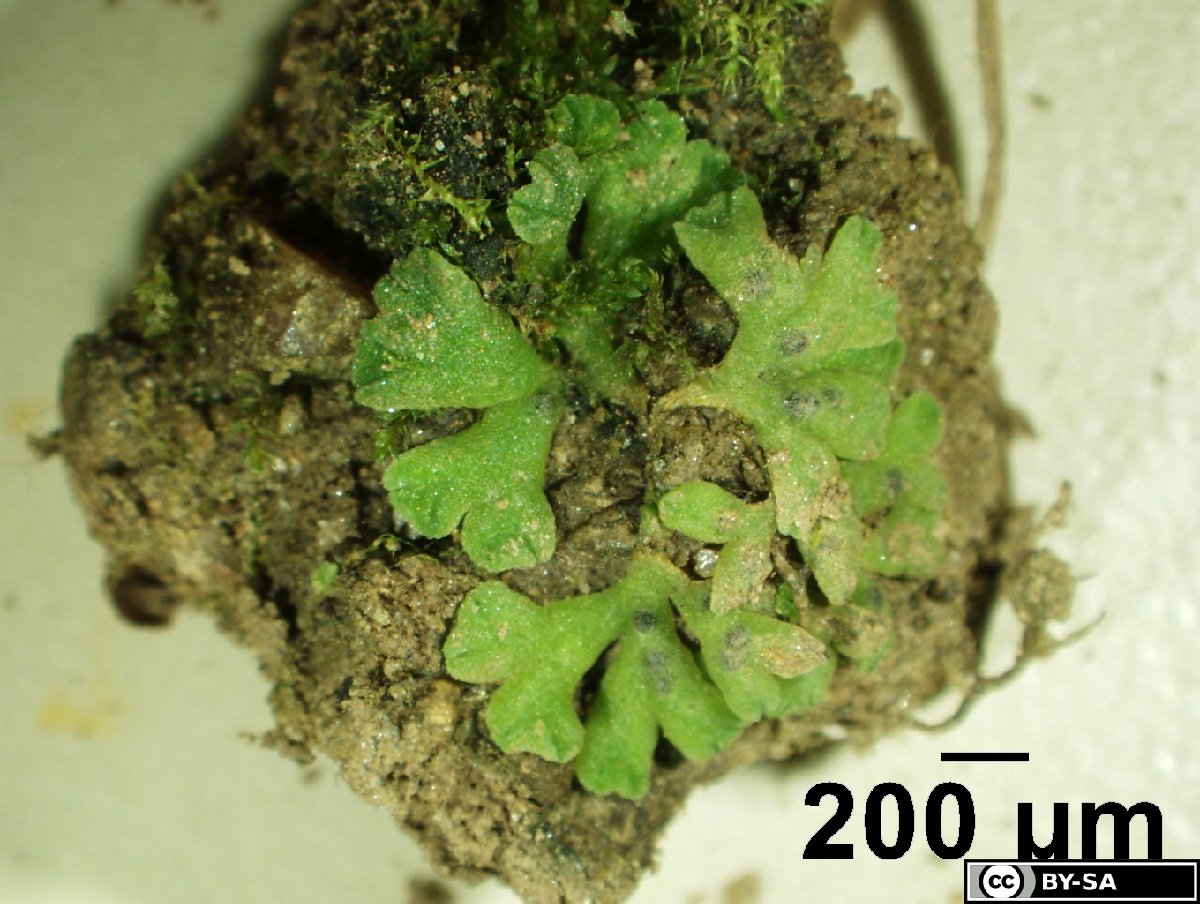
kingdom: Plantae
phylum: Marchantiophyta
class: Marchantiopsida
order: Marchantiales
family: Ricciaceae
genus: Riccia
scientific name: Riccia glauca
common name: Glaucous crystalwort
